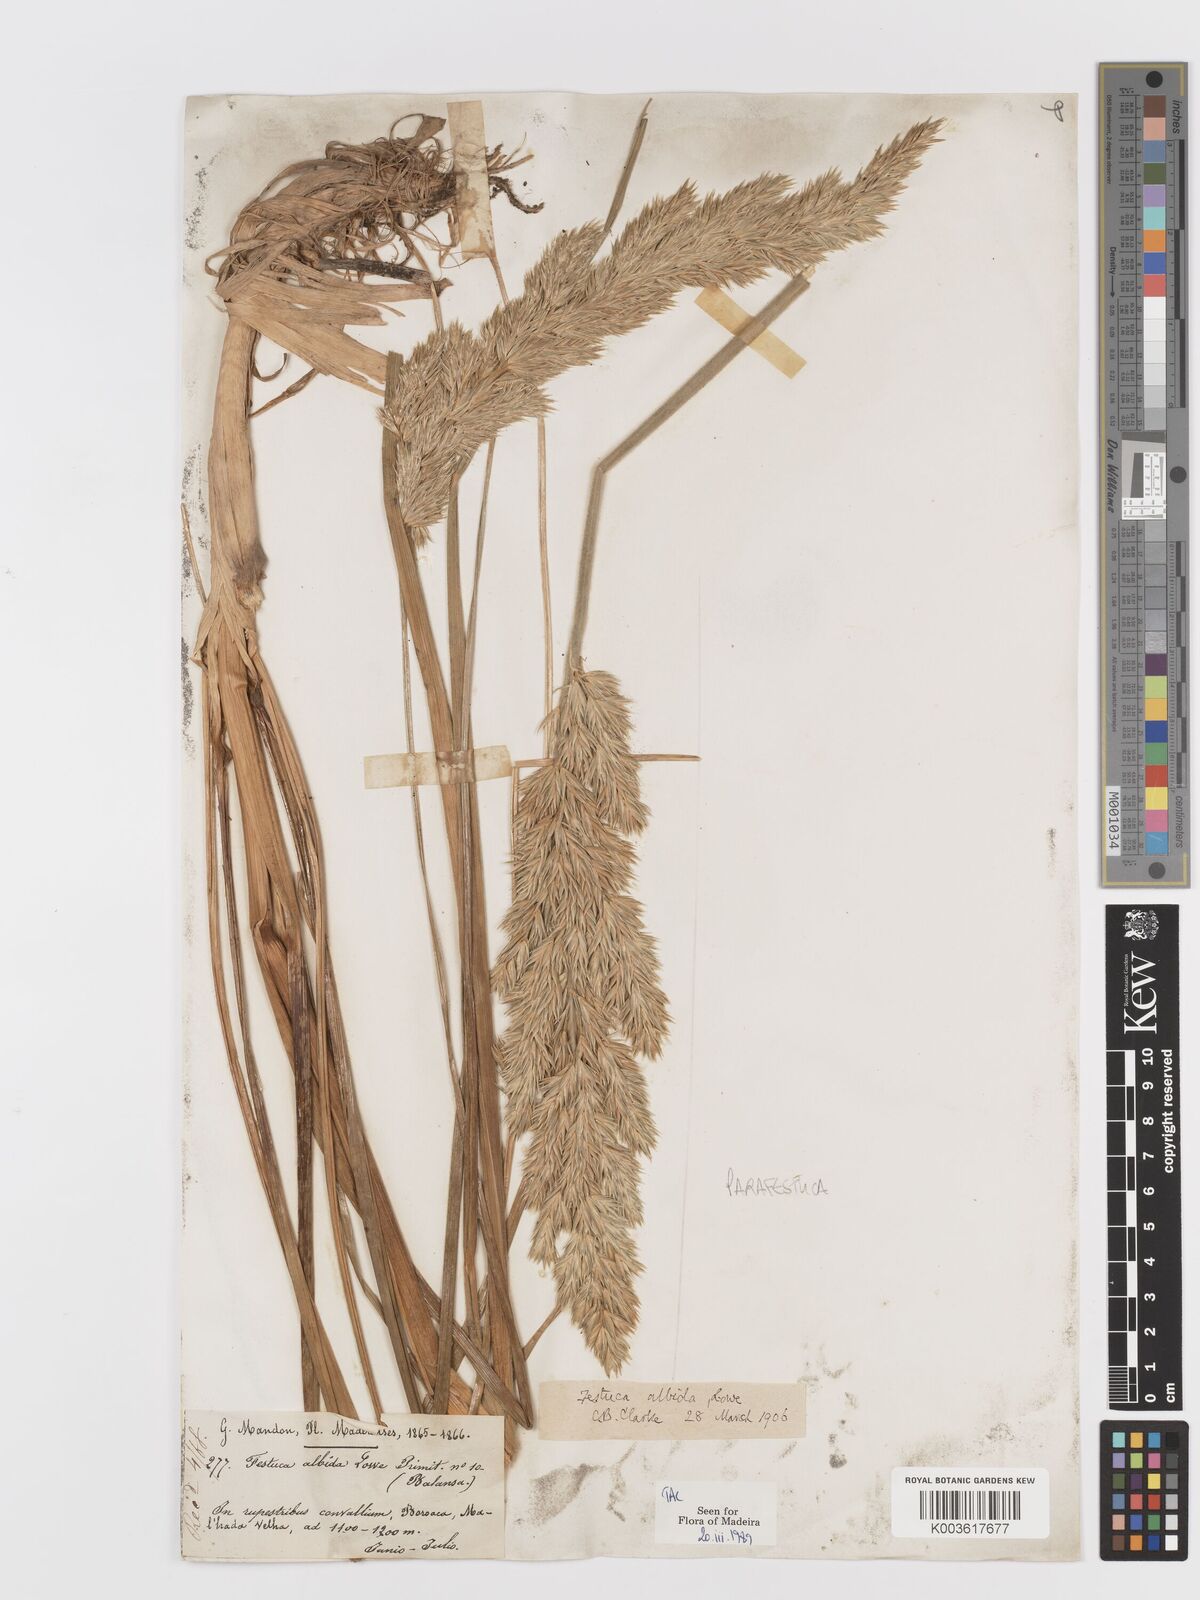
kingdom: Plantae
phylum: Tracheophyta
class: Liliopsida
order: Poales
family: Poaceae
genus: Koeleria
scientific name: Koeleria macrantha
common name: Crested hair-grass
